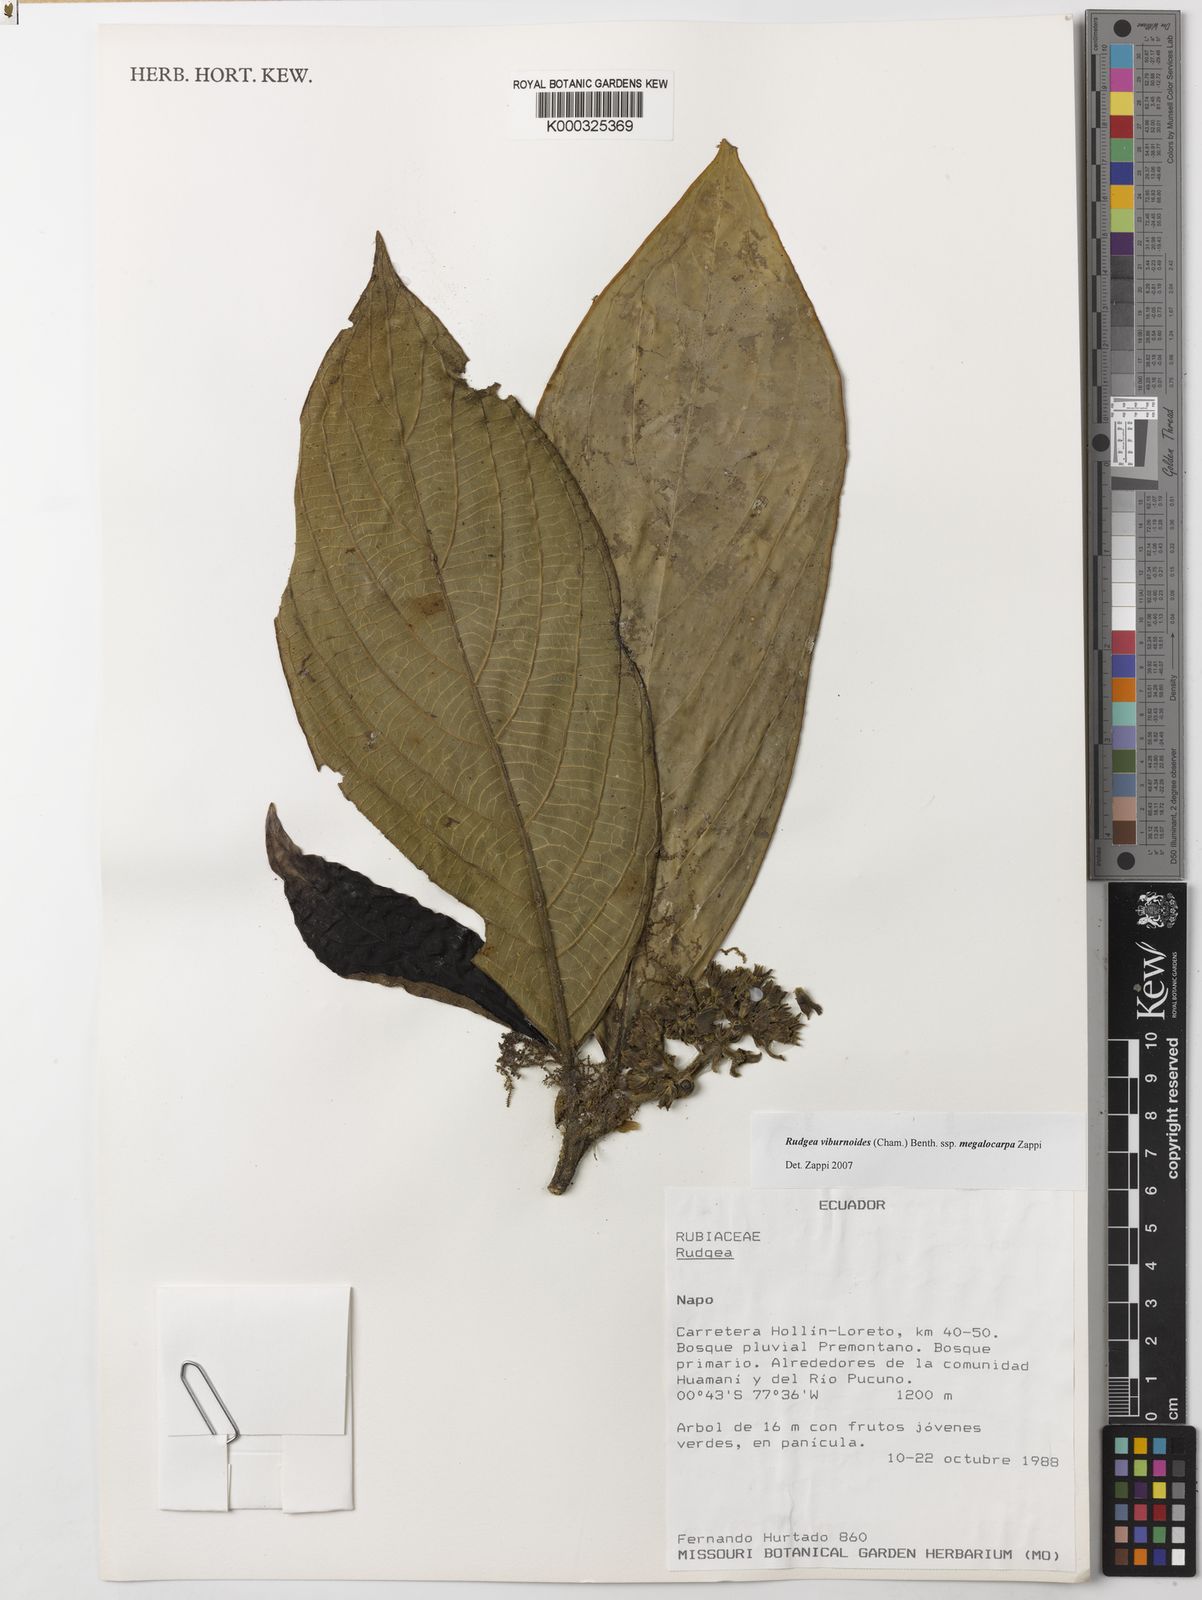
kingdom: Plantae
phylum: Tracheophyta
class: Magnoliopsida
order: Gentianales
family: Rubiaceae
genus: Rudgea
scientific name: Rudgea viburnoides
